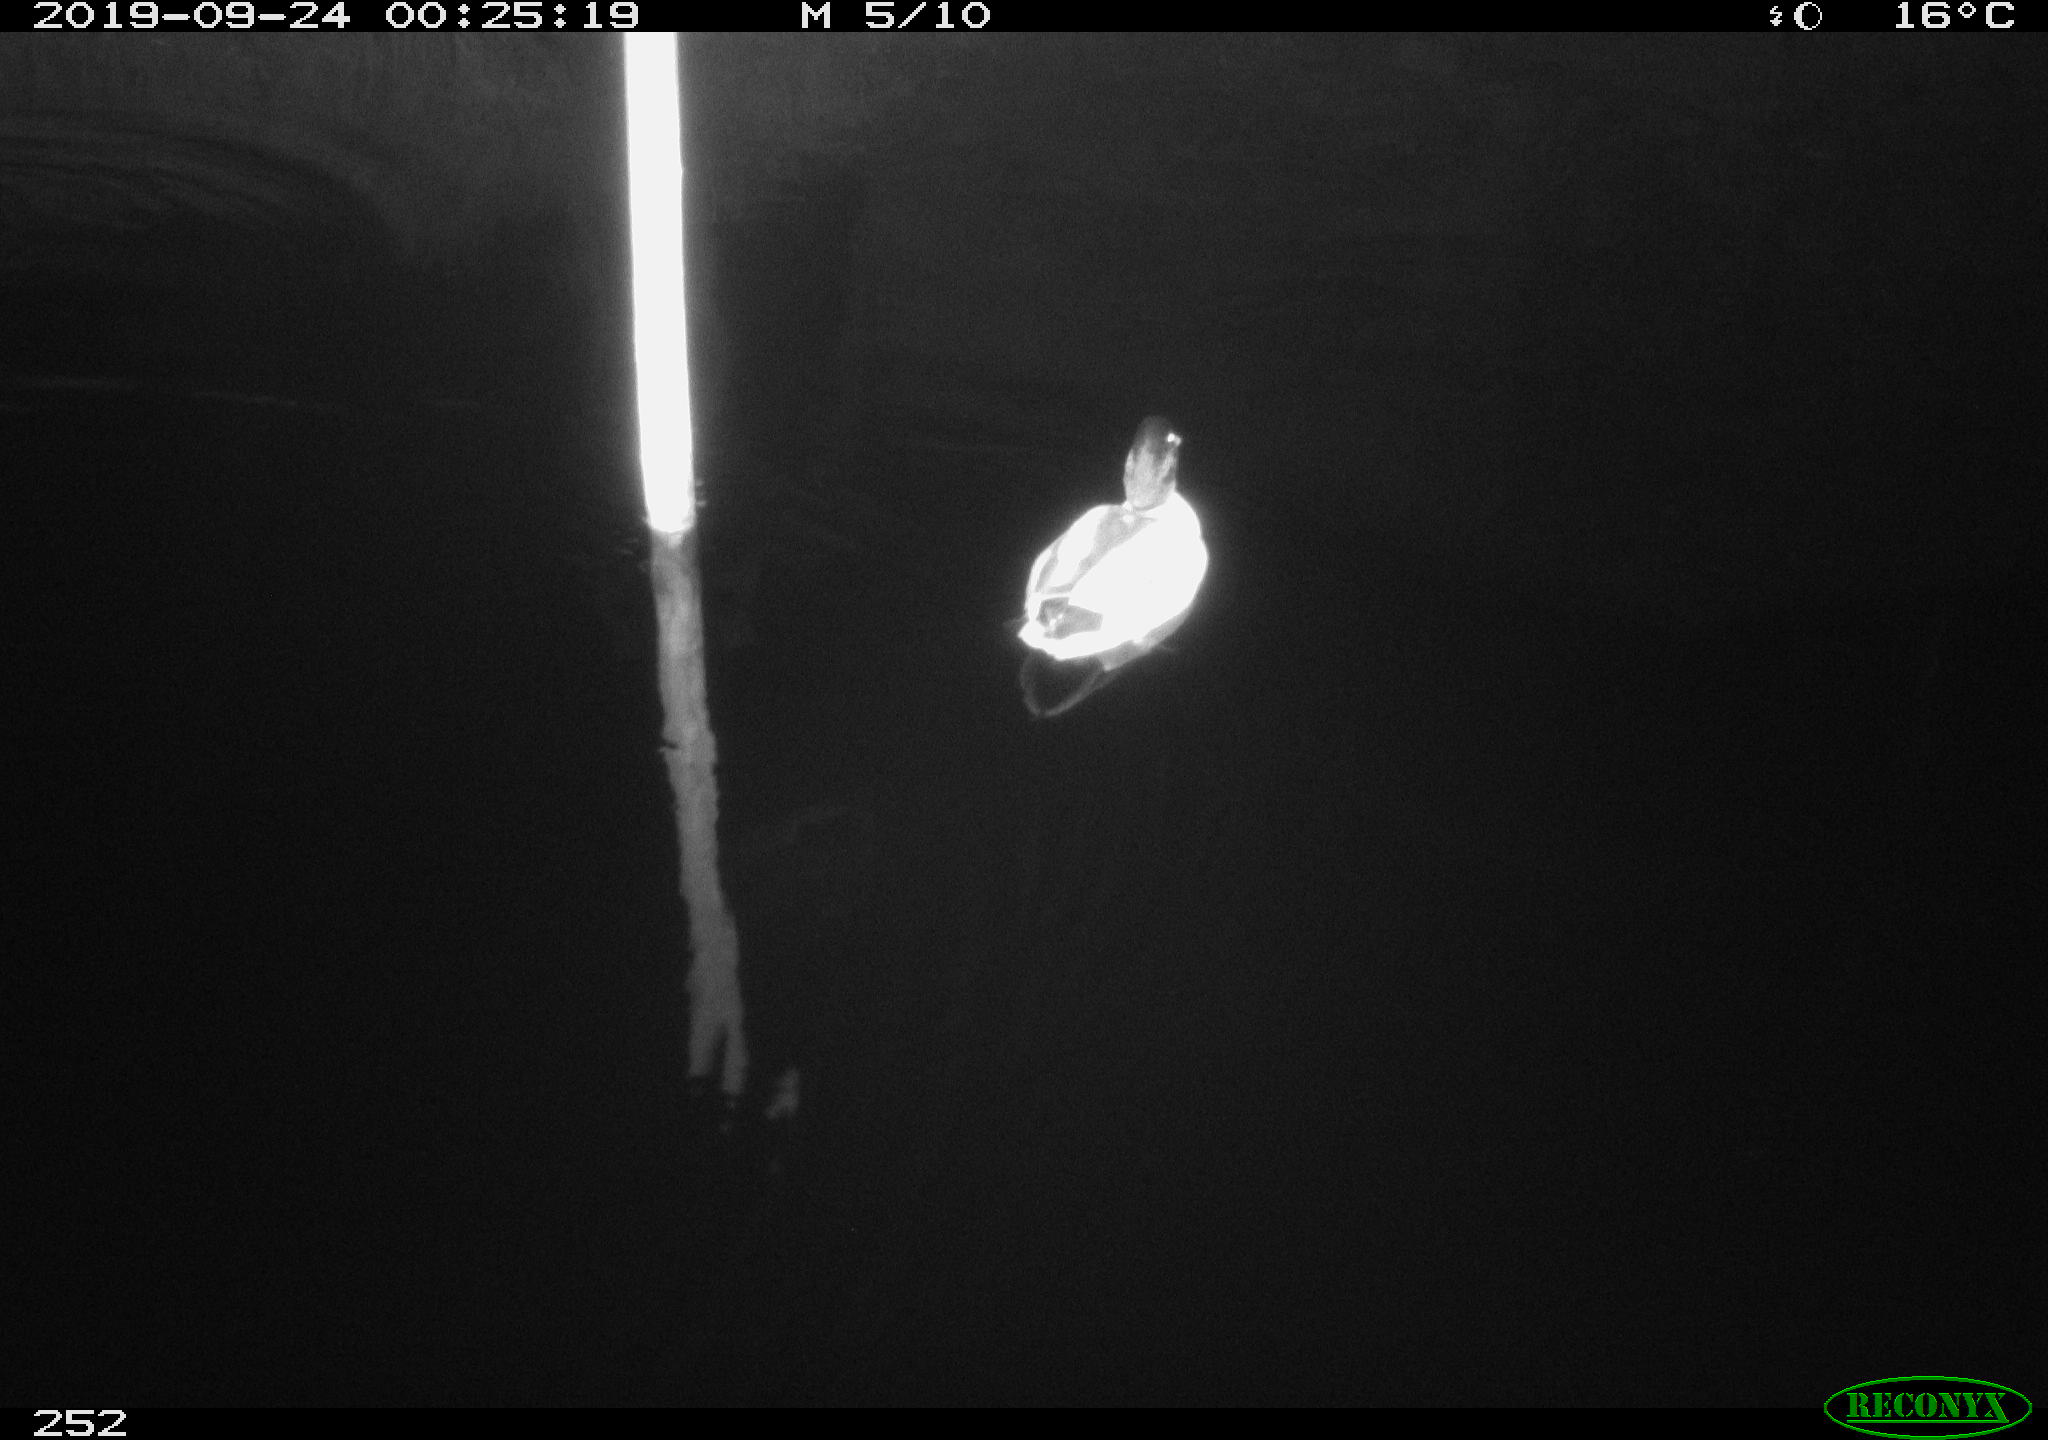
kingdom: Animalia
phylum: Chordata
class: Aves
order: Anseriformes
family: Anatidae
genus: Anas
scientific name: Anas platyrhynchos
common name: Mallard
